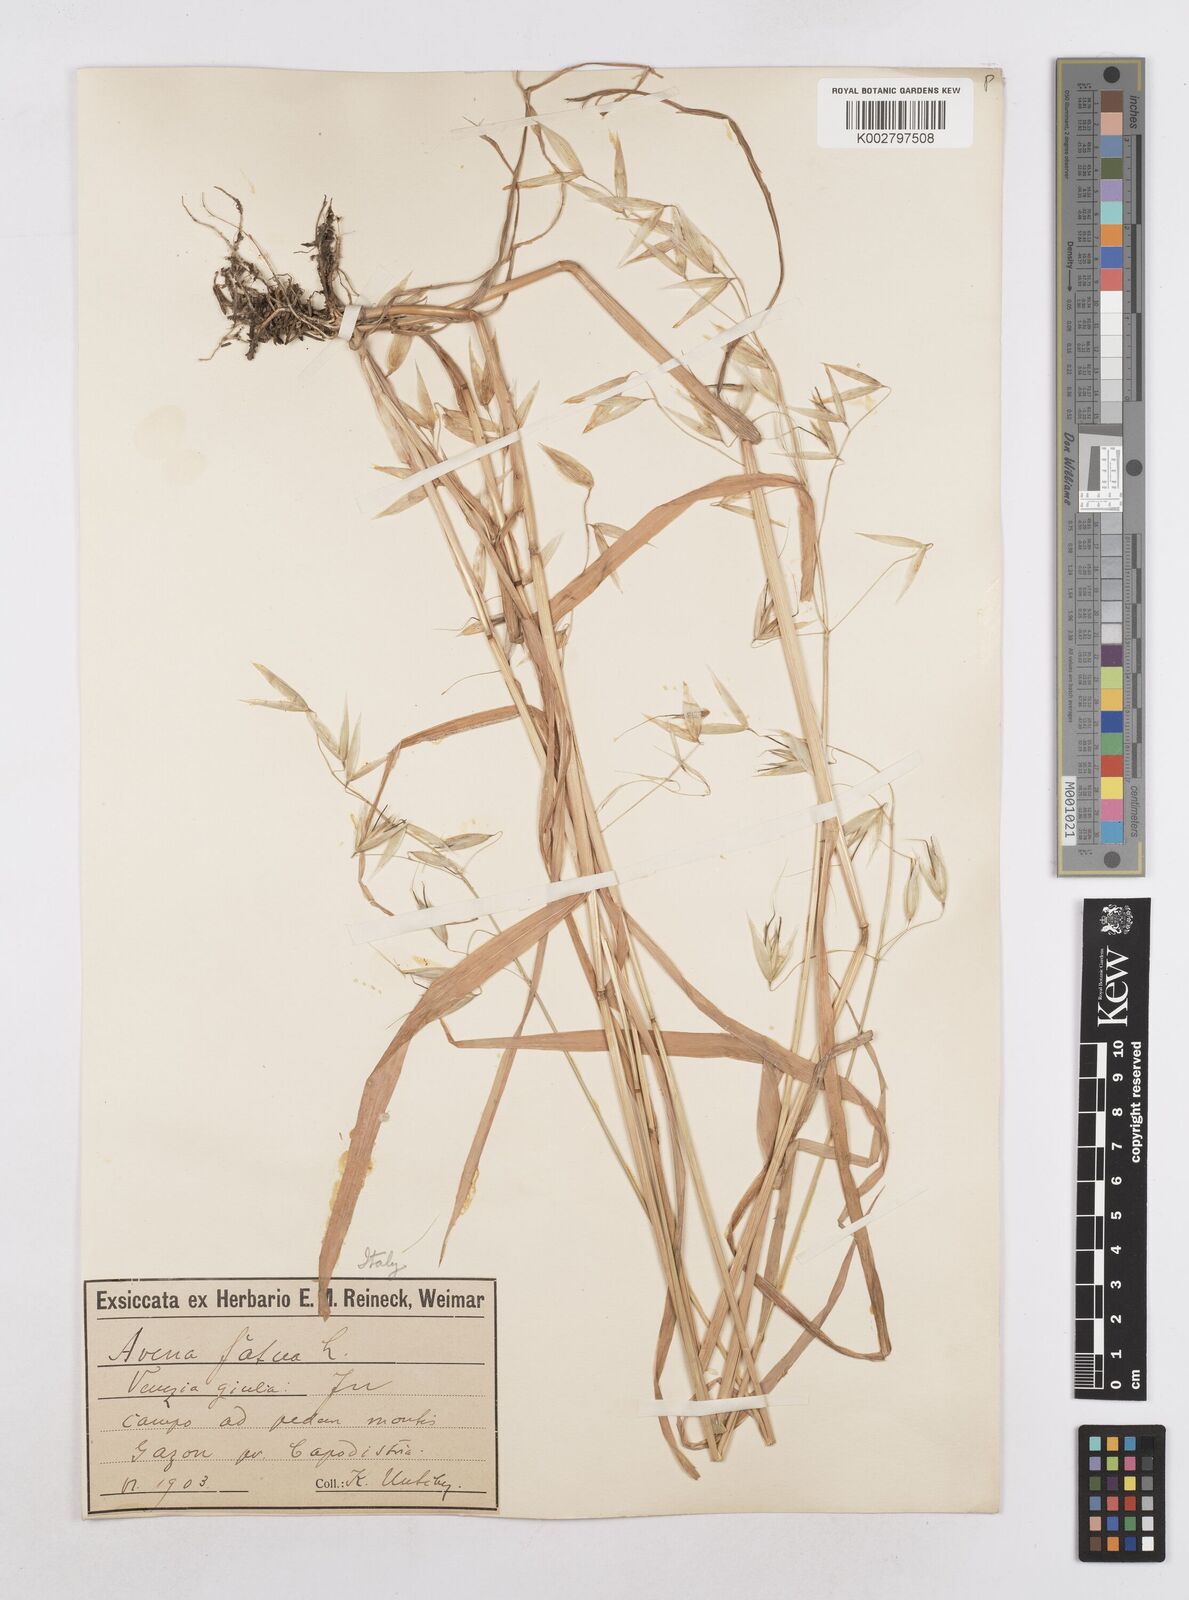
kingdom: Plantae
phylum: Tracheophyta
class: Liliopsida
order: Poales
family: Poaceae
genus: Avena
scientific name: Avena fatua
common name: Wild oat
